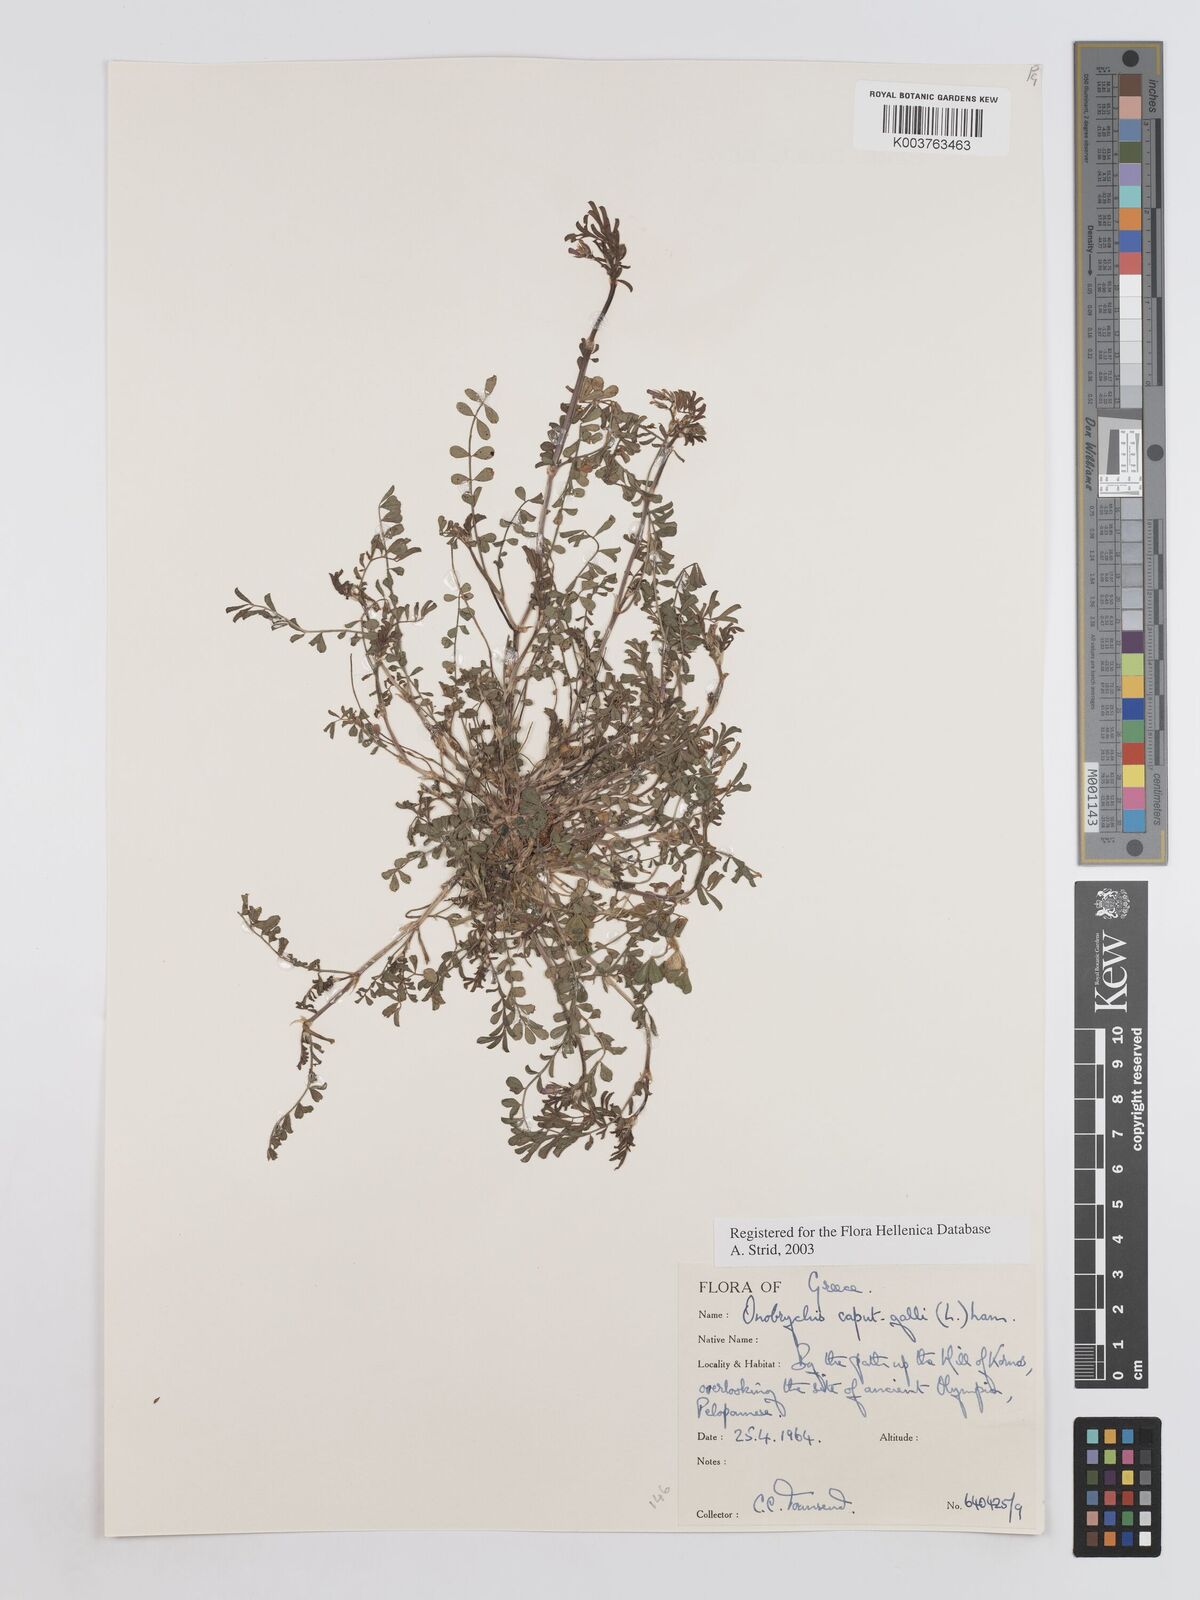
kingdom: Plantae
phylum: Tracheophyta
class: Magnoliopsida
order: Fabales
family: Fabaceae
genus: Onobrychis
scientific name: Onobrychis caput-galli
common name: Cockscomb sainfoin
